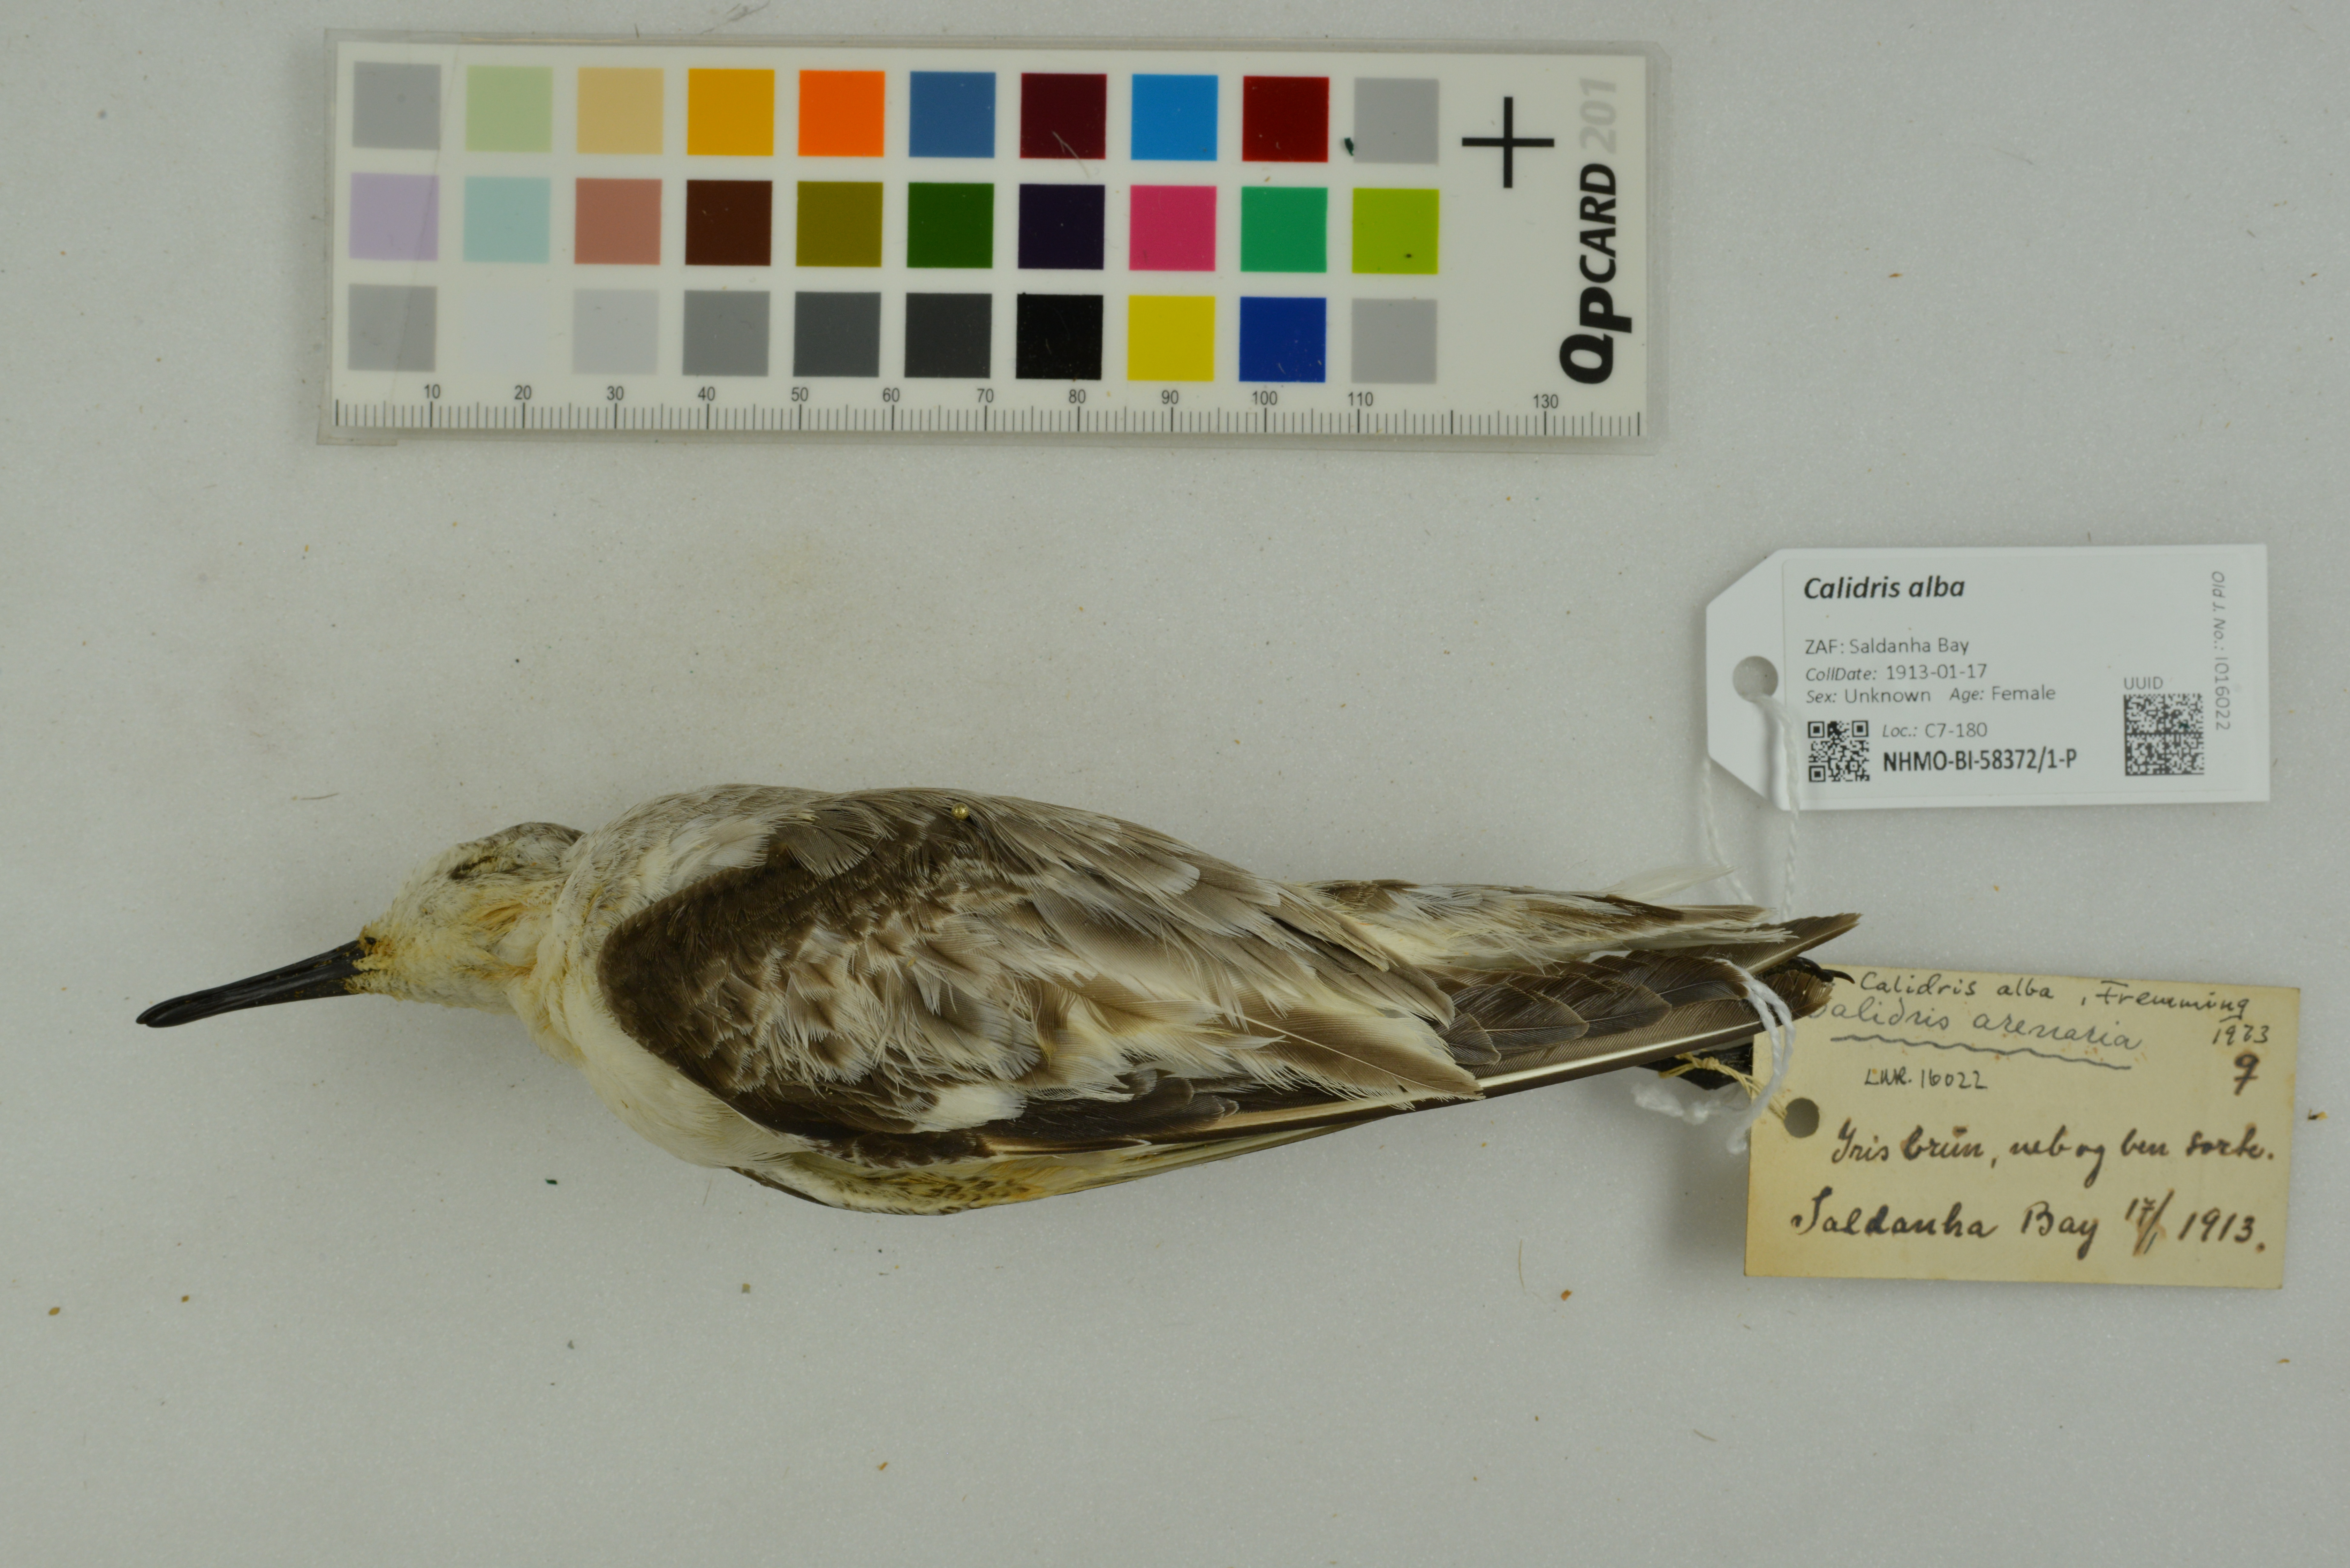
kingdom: Animalia
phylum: Chordata
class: Aves
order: Charadriiformes
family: Scolopacidae
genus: Calidris
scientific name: Calidris alba
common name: Sanderling
